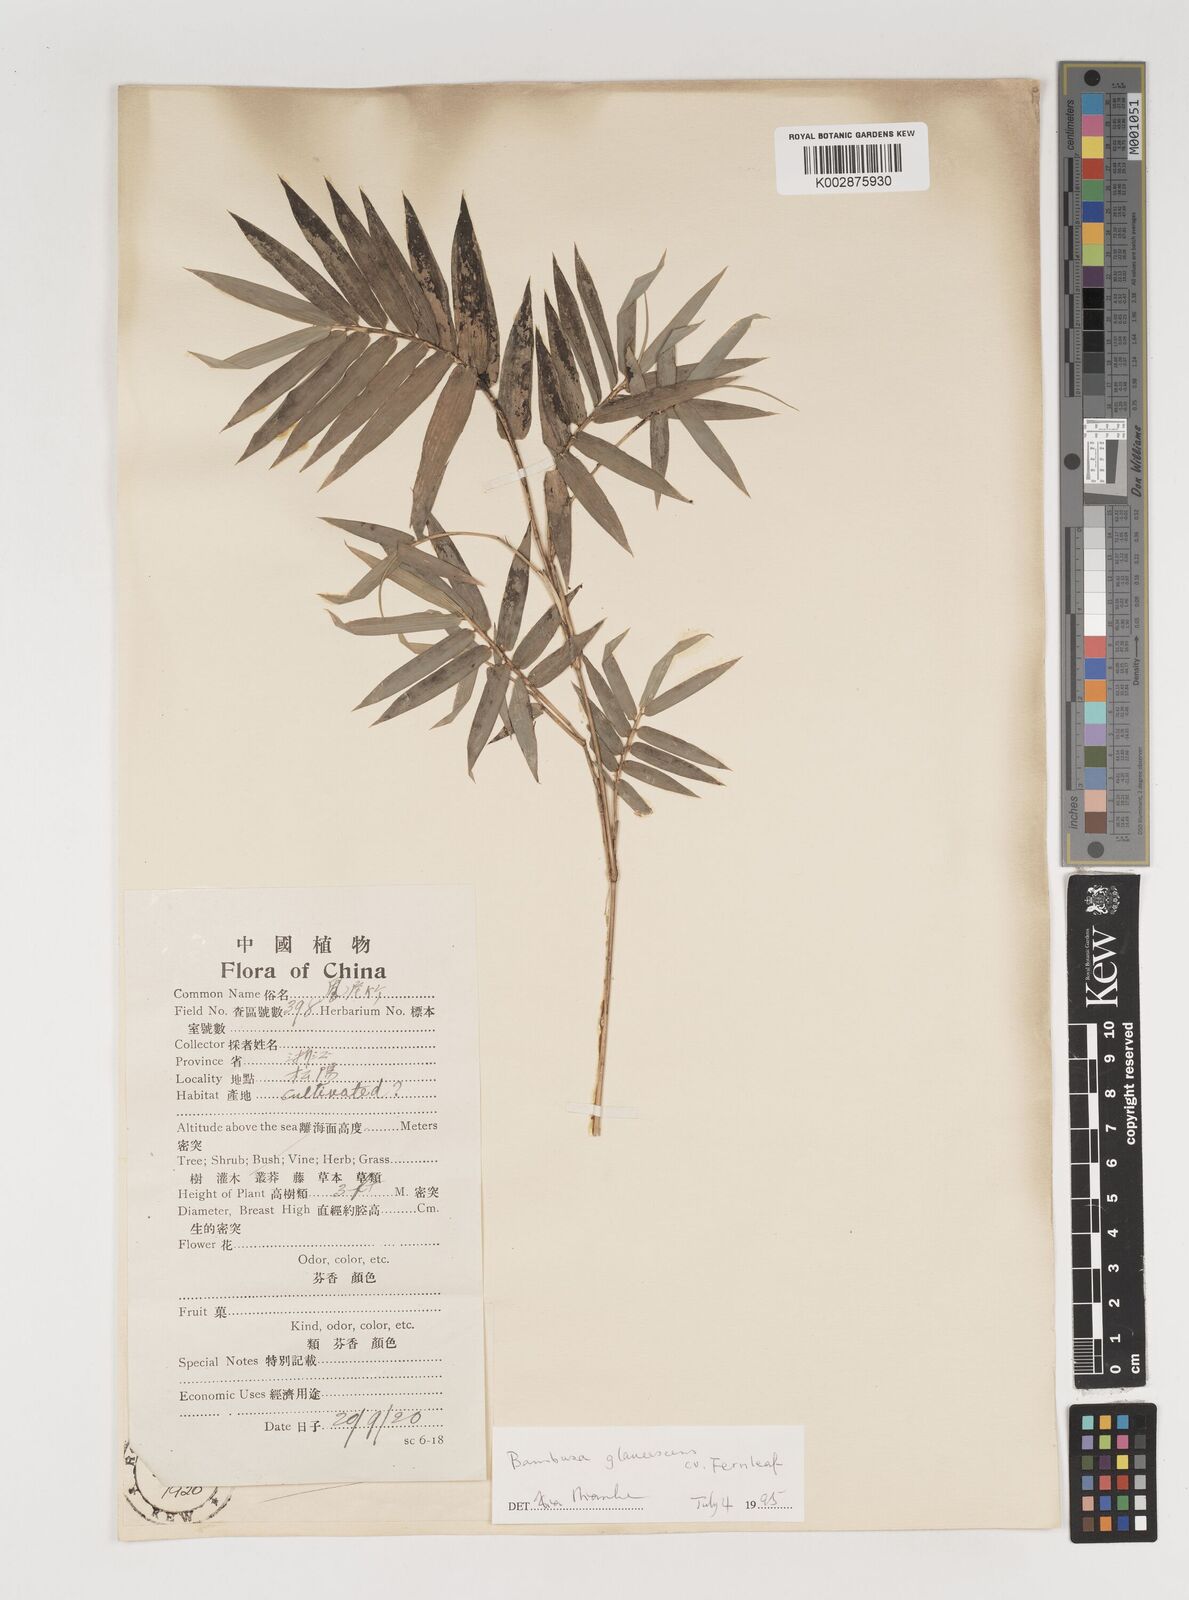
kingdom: Plantae
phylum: Tracheophyta
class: Liliopsida
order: Poales
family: Poaceae
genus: Bambusa
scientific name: Bambusa multiplex
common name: Hedge bamboo
